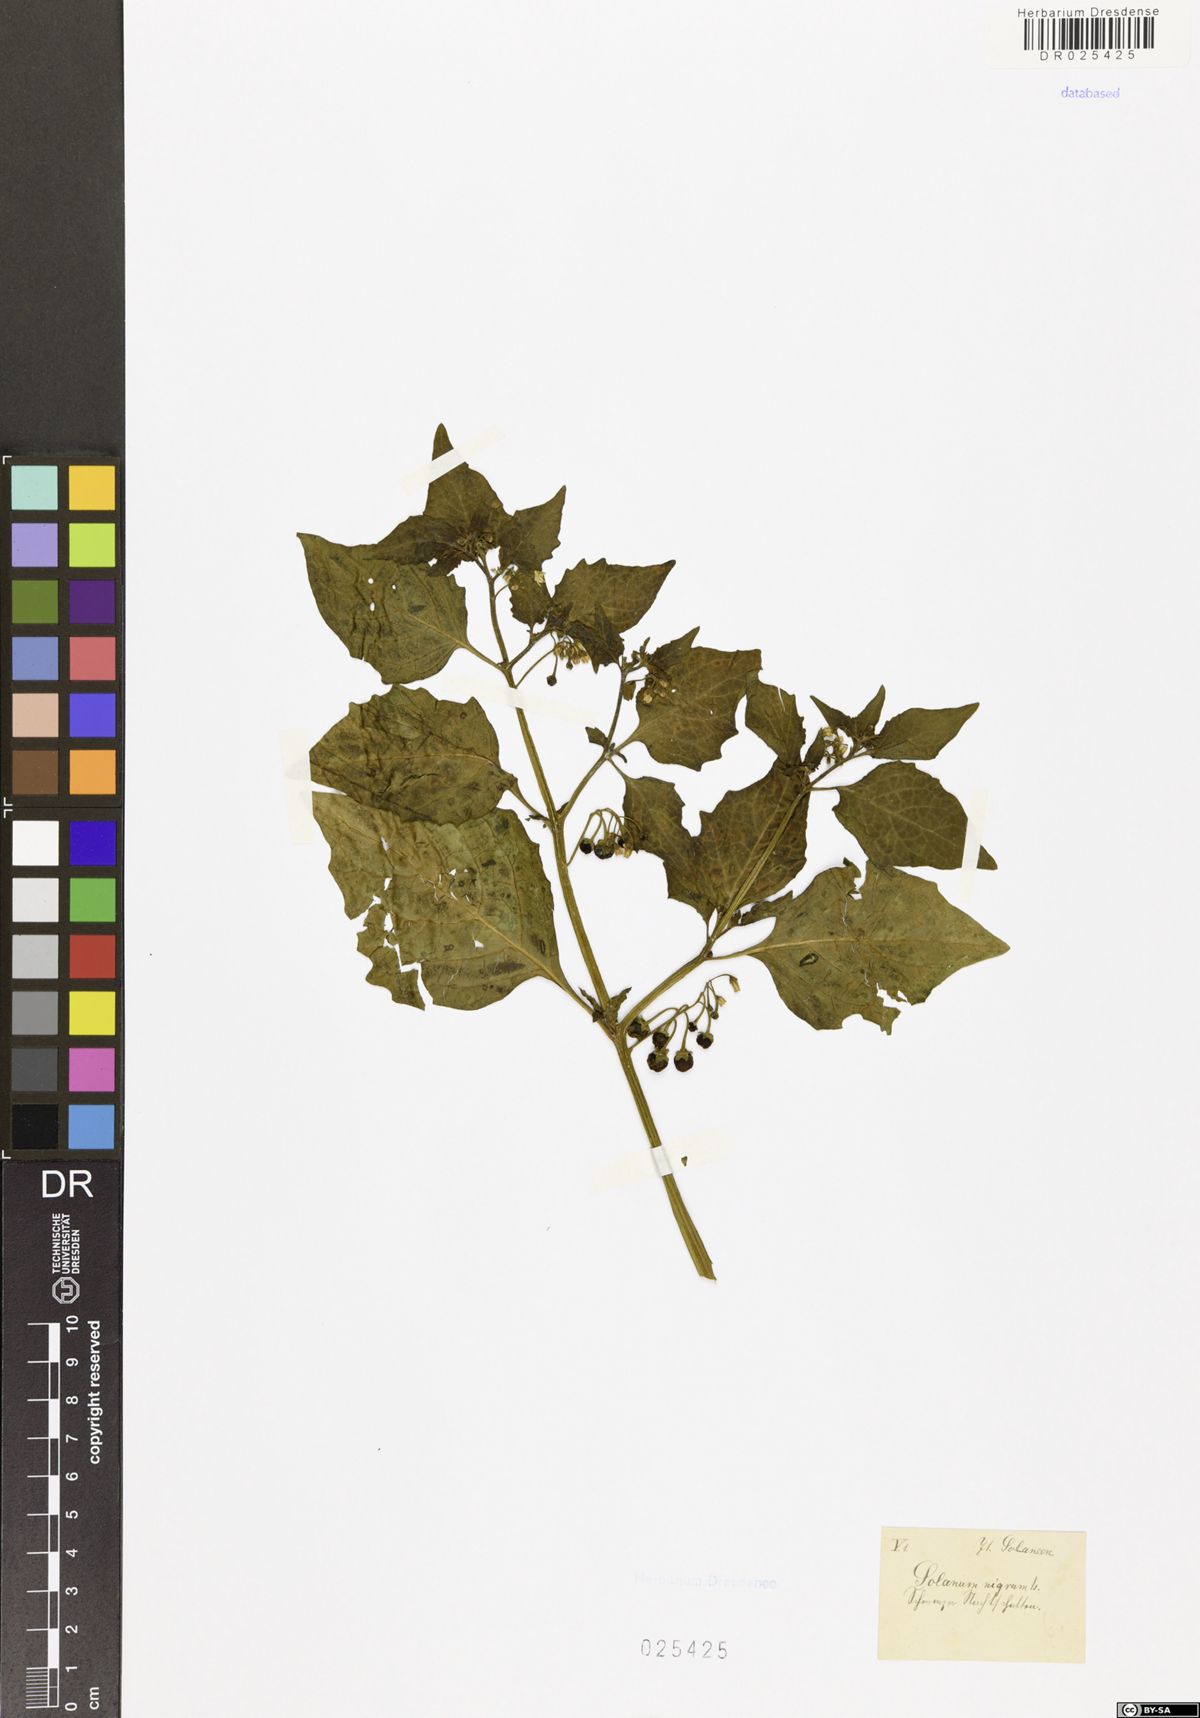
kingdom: Plantae
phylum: Tracheophyta
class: Magnoliopsida
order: Solanales
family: Solanaceae
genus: Solanum
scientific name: Solanum nigrum
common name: Black nightshade
